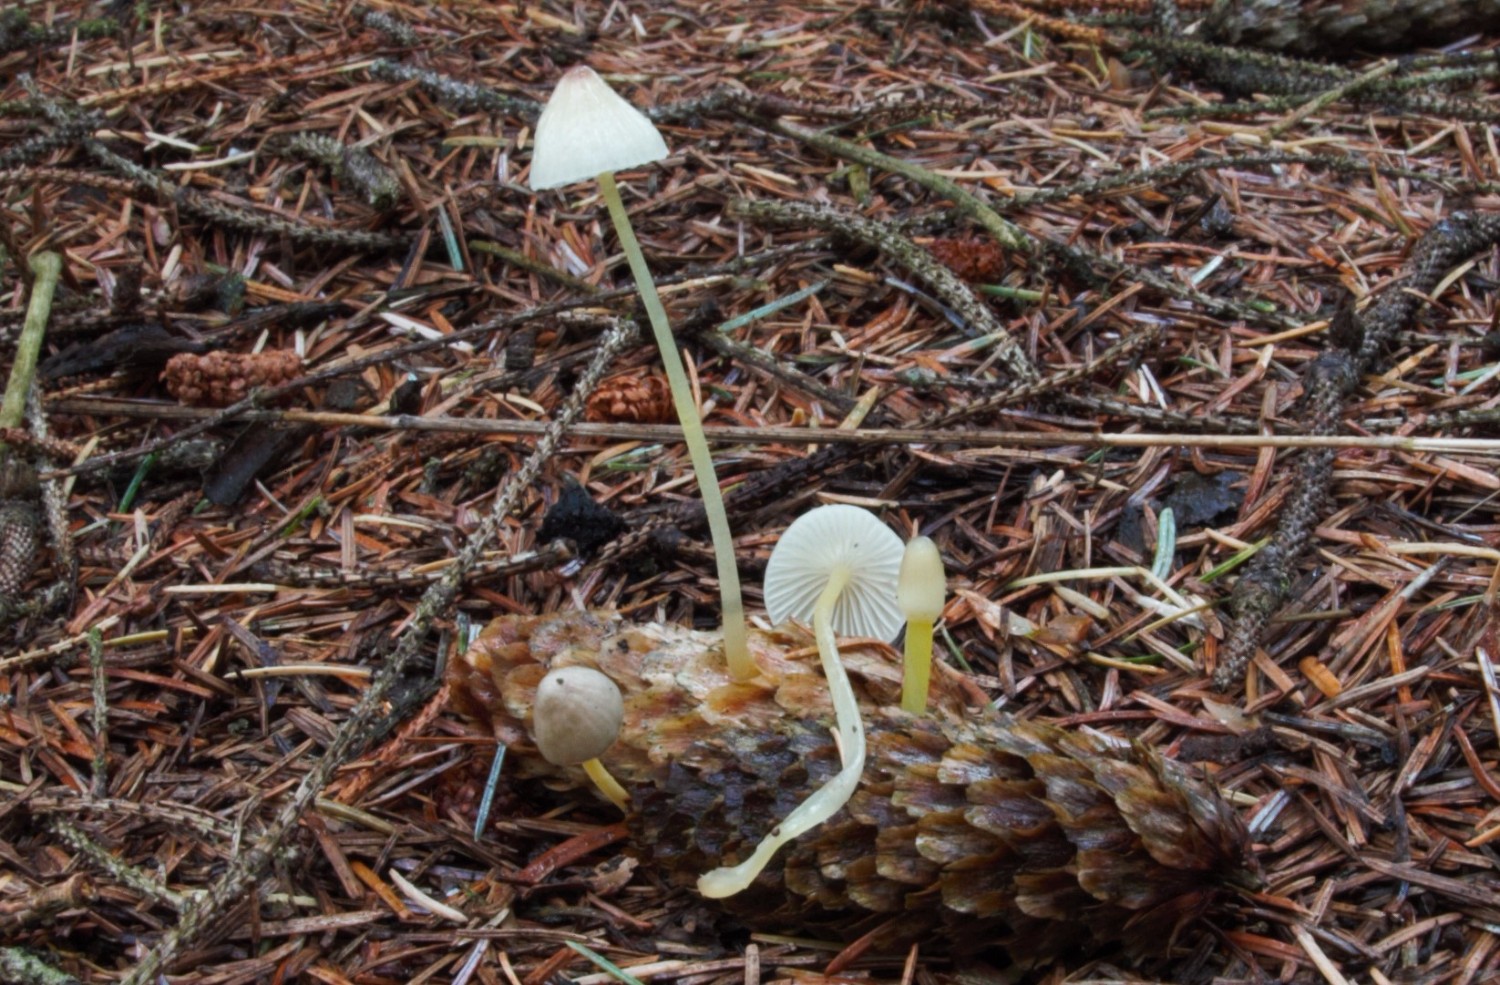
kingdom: Fungi
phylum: Basidiomycota
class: Agaricomycetes
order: Agaricales
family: Mycenaceae
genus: Mycena
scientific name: Mycena epipterygia
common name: gulstokket huesvamp
